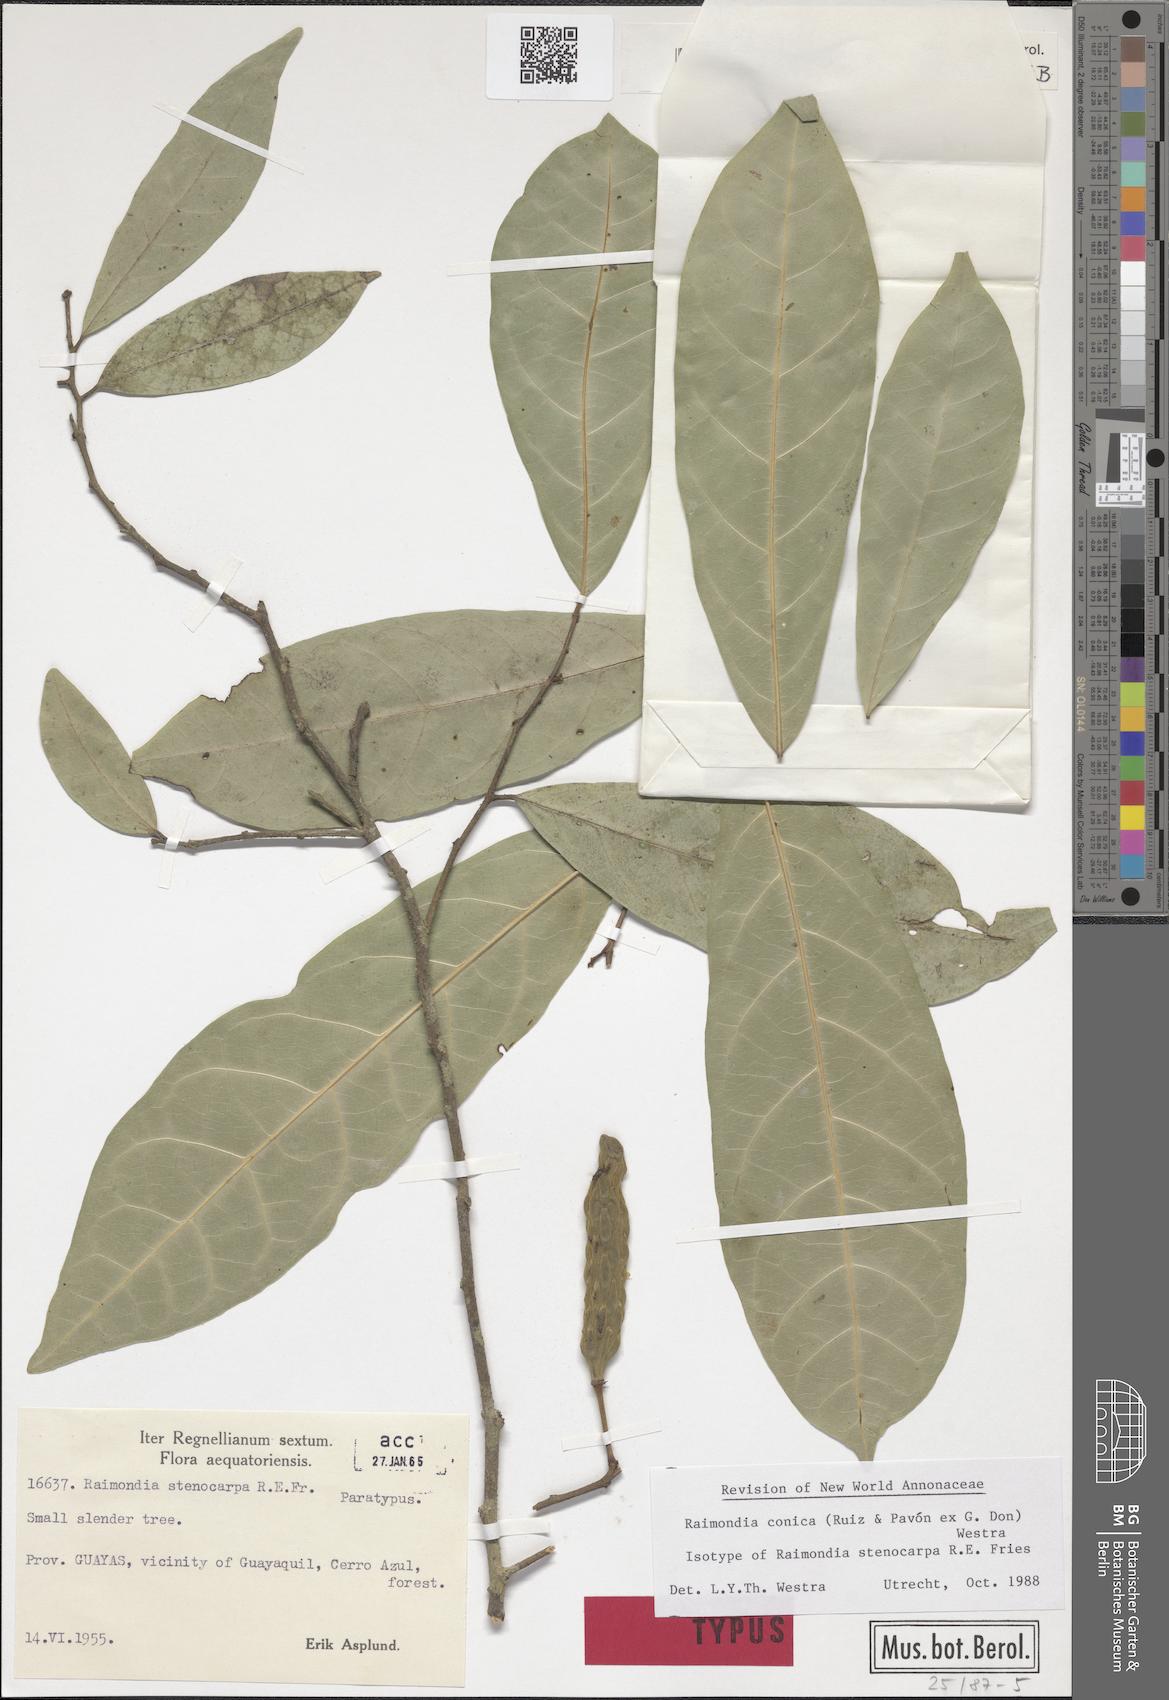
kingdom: Plantae
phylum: Tracheophyta
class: Magnoliopsida
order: Magnoliales
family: Annonaceae
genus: Annona
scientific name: Annona conica
